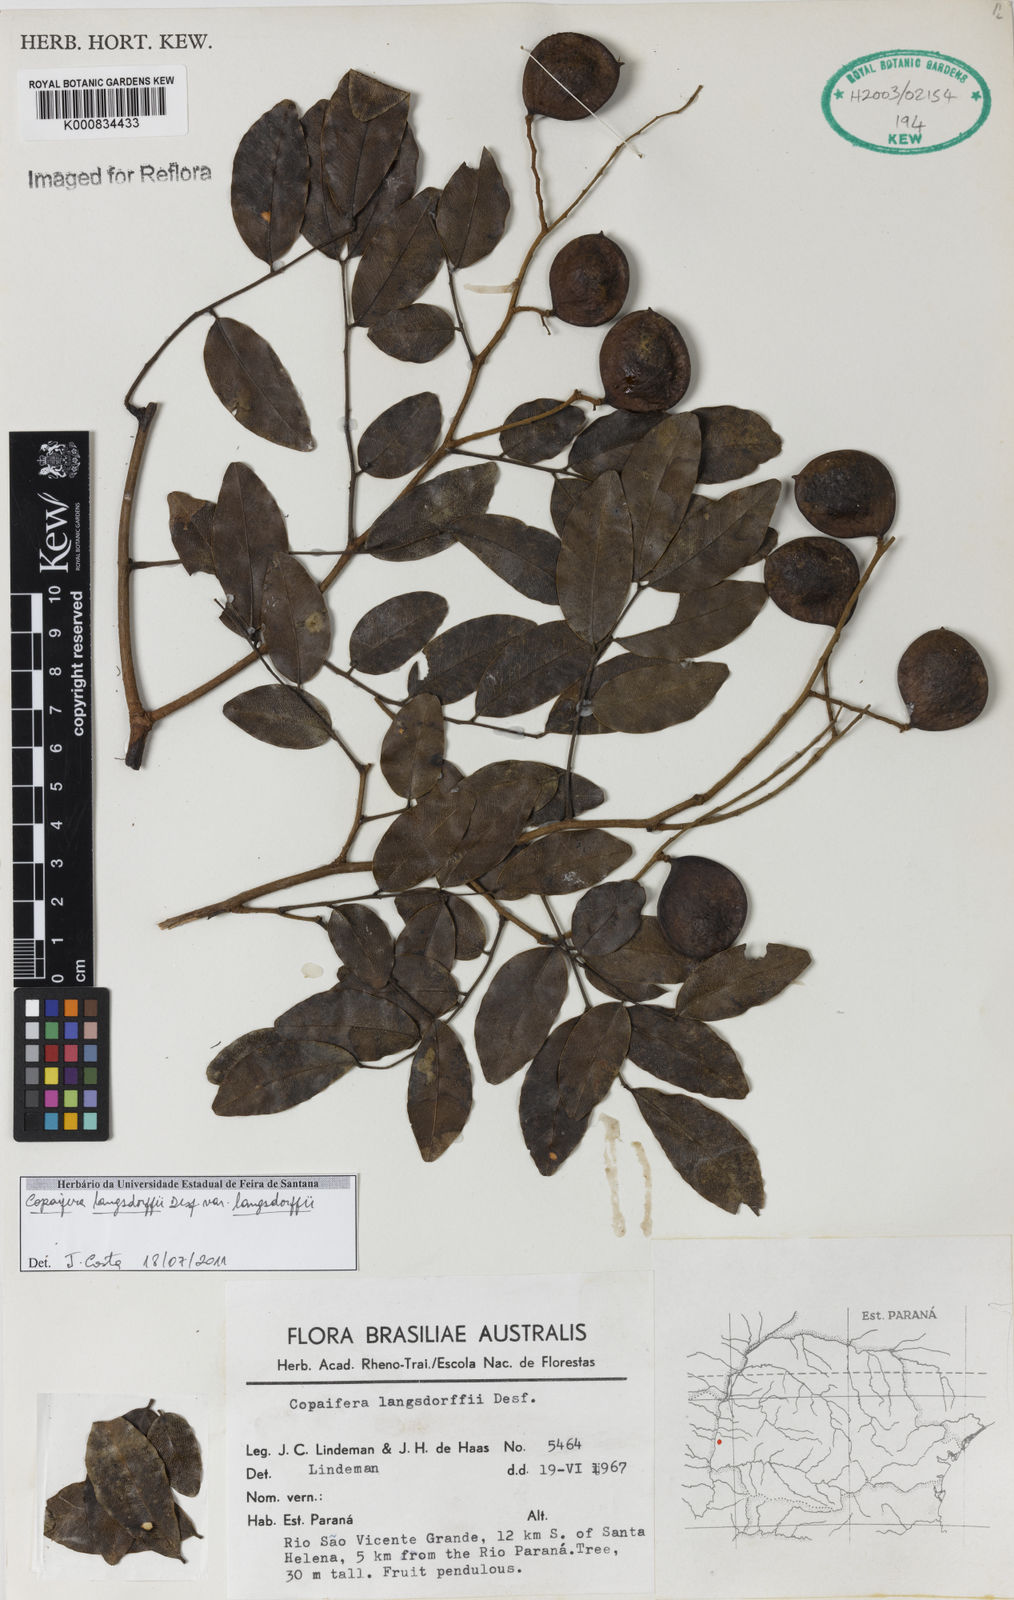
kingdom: Plantae
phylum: Tracheophyta
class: Magnoliopsida
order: Fabales
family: Fabaceae
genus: Copaifera
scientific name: Copaifera langsdorffii
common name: Brazilian diesel tree
